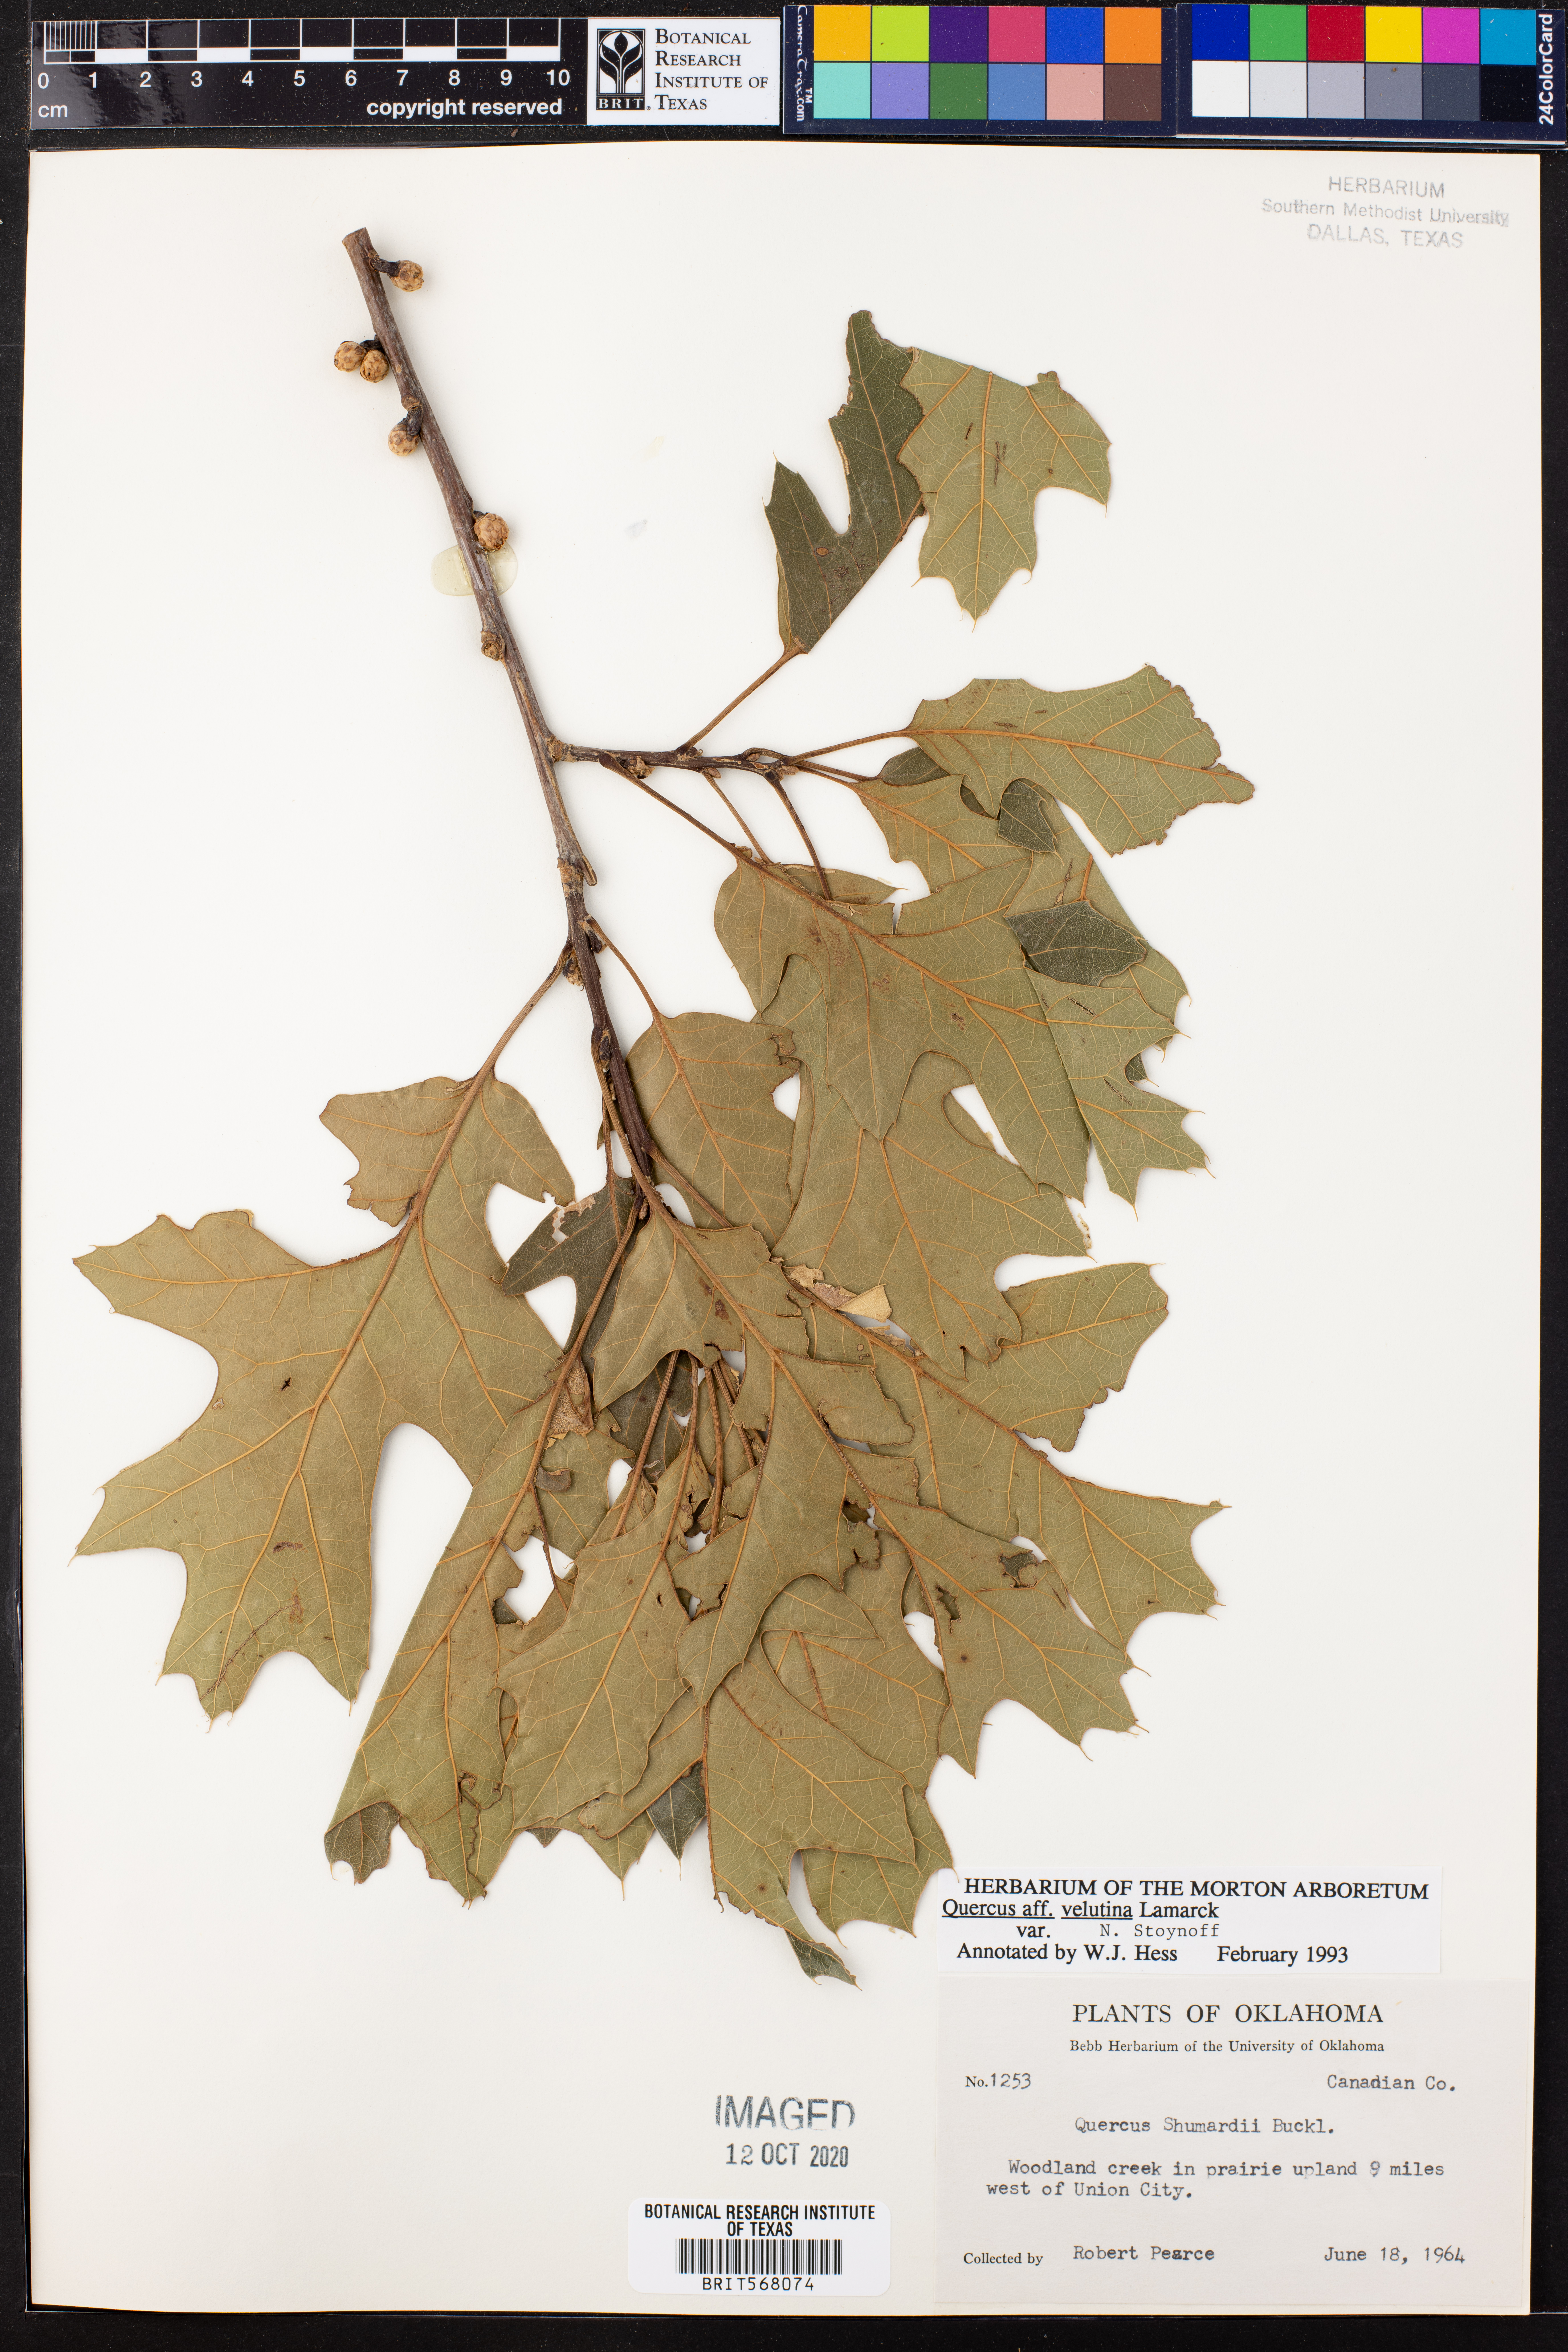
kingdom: Plantae
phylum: Tracheophyta
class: Magnoliopsida
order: Fagales
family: Fagaceae
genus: Quercus
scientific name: Quercus velutina
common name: Black oak
